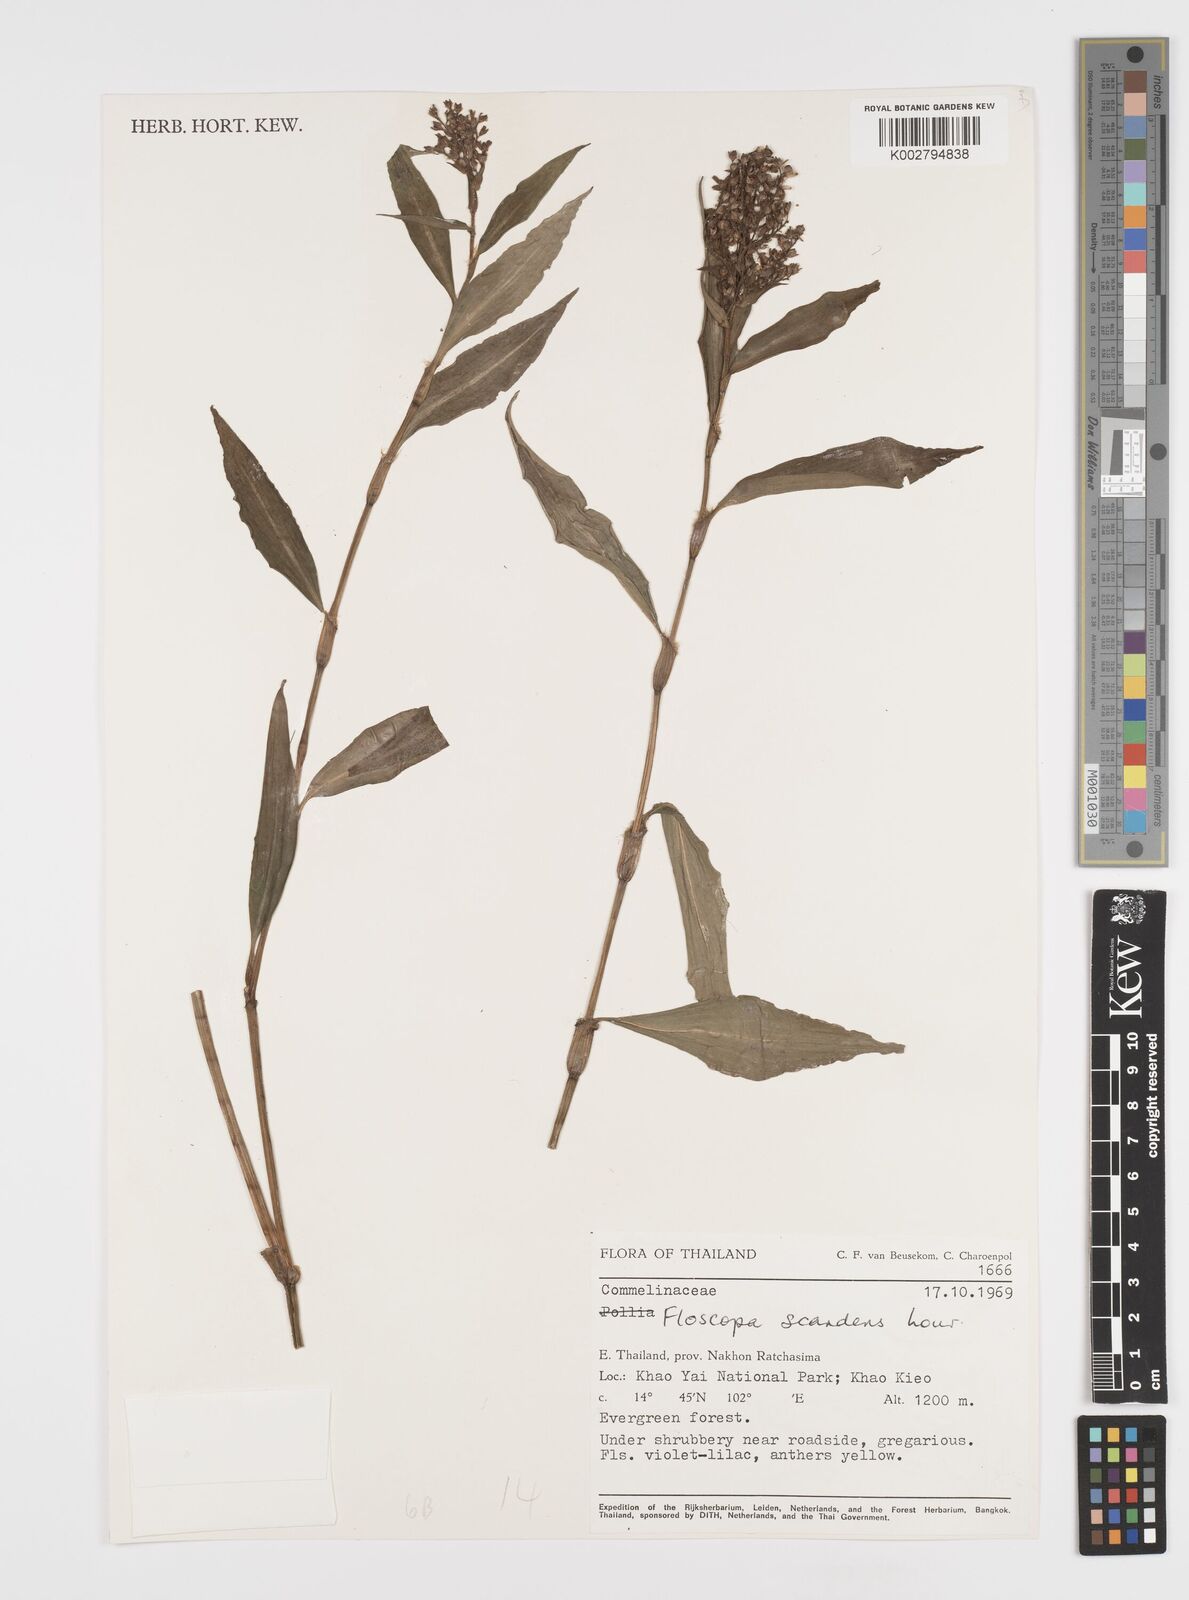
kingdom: Plantae
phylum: Tracheophyta
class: Liliopsida
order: Commelinales
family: Commelinaceae
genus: Floscopa
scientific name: Floscopa scandens
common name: Climbing flower cup
